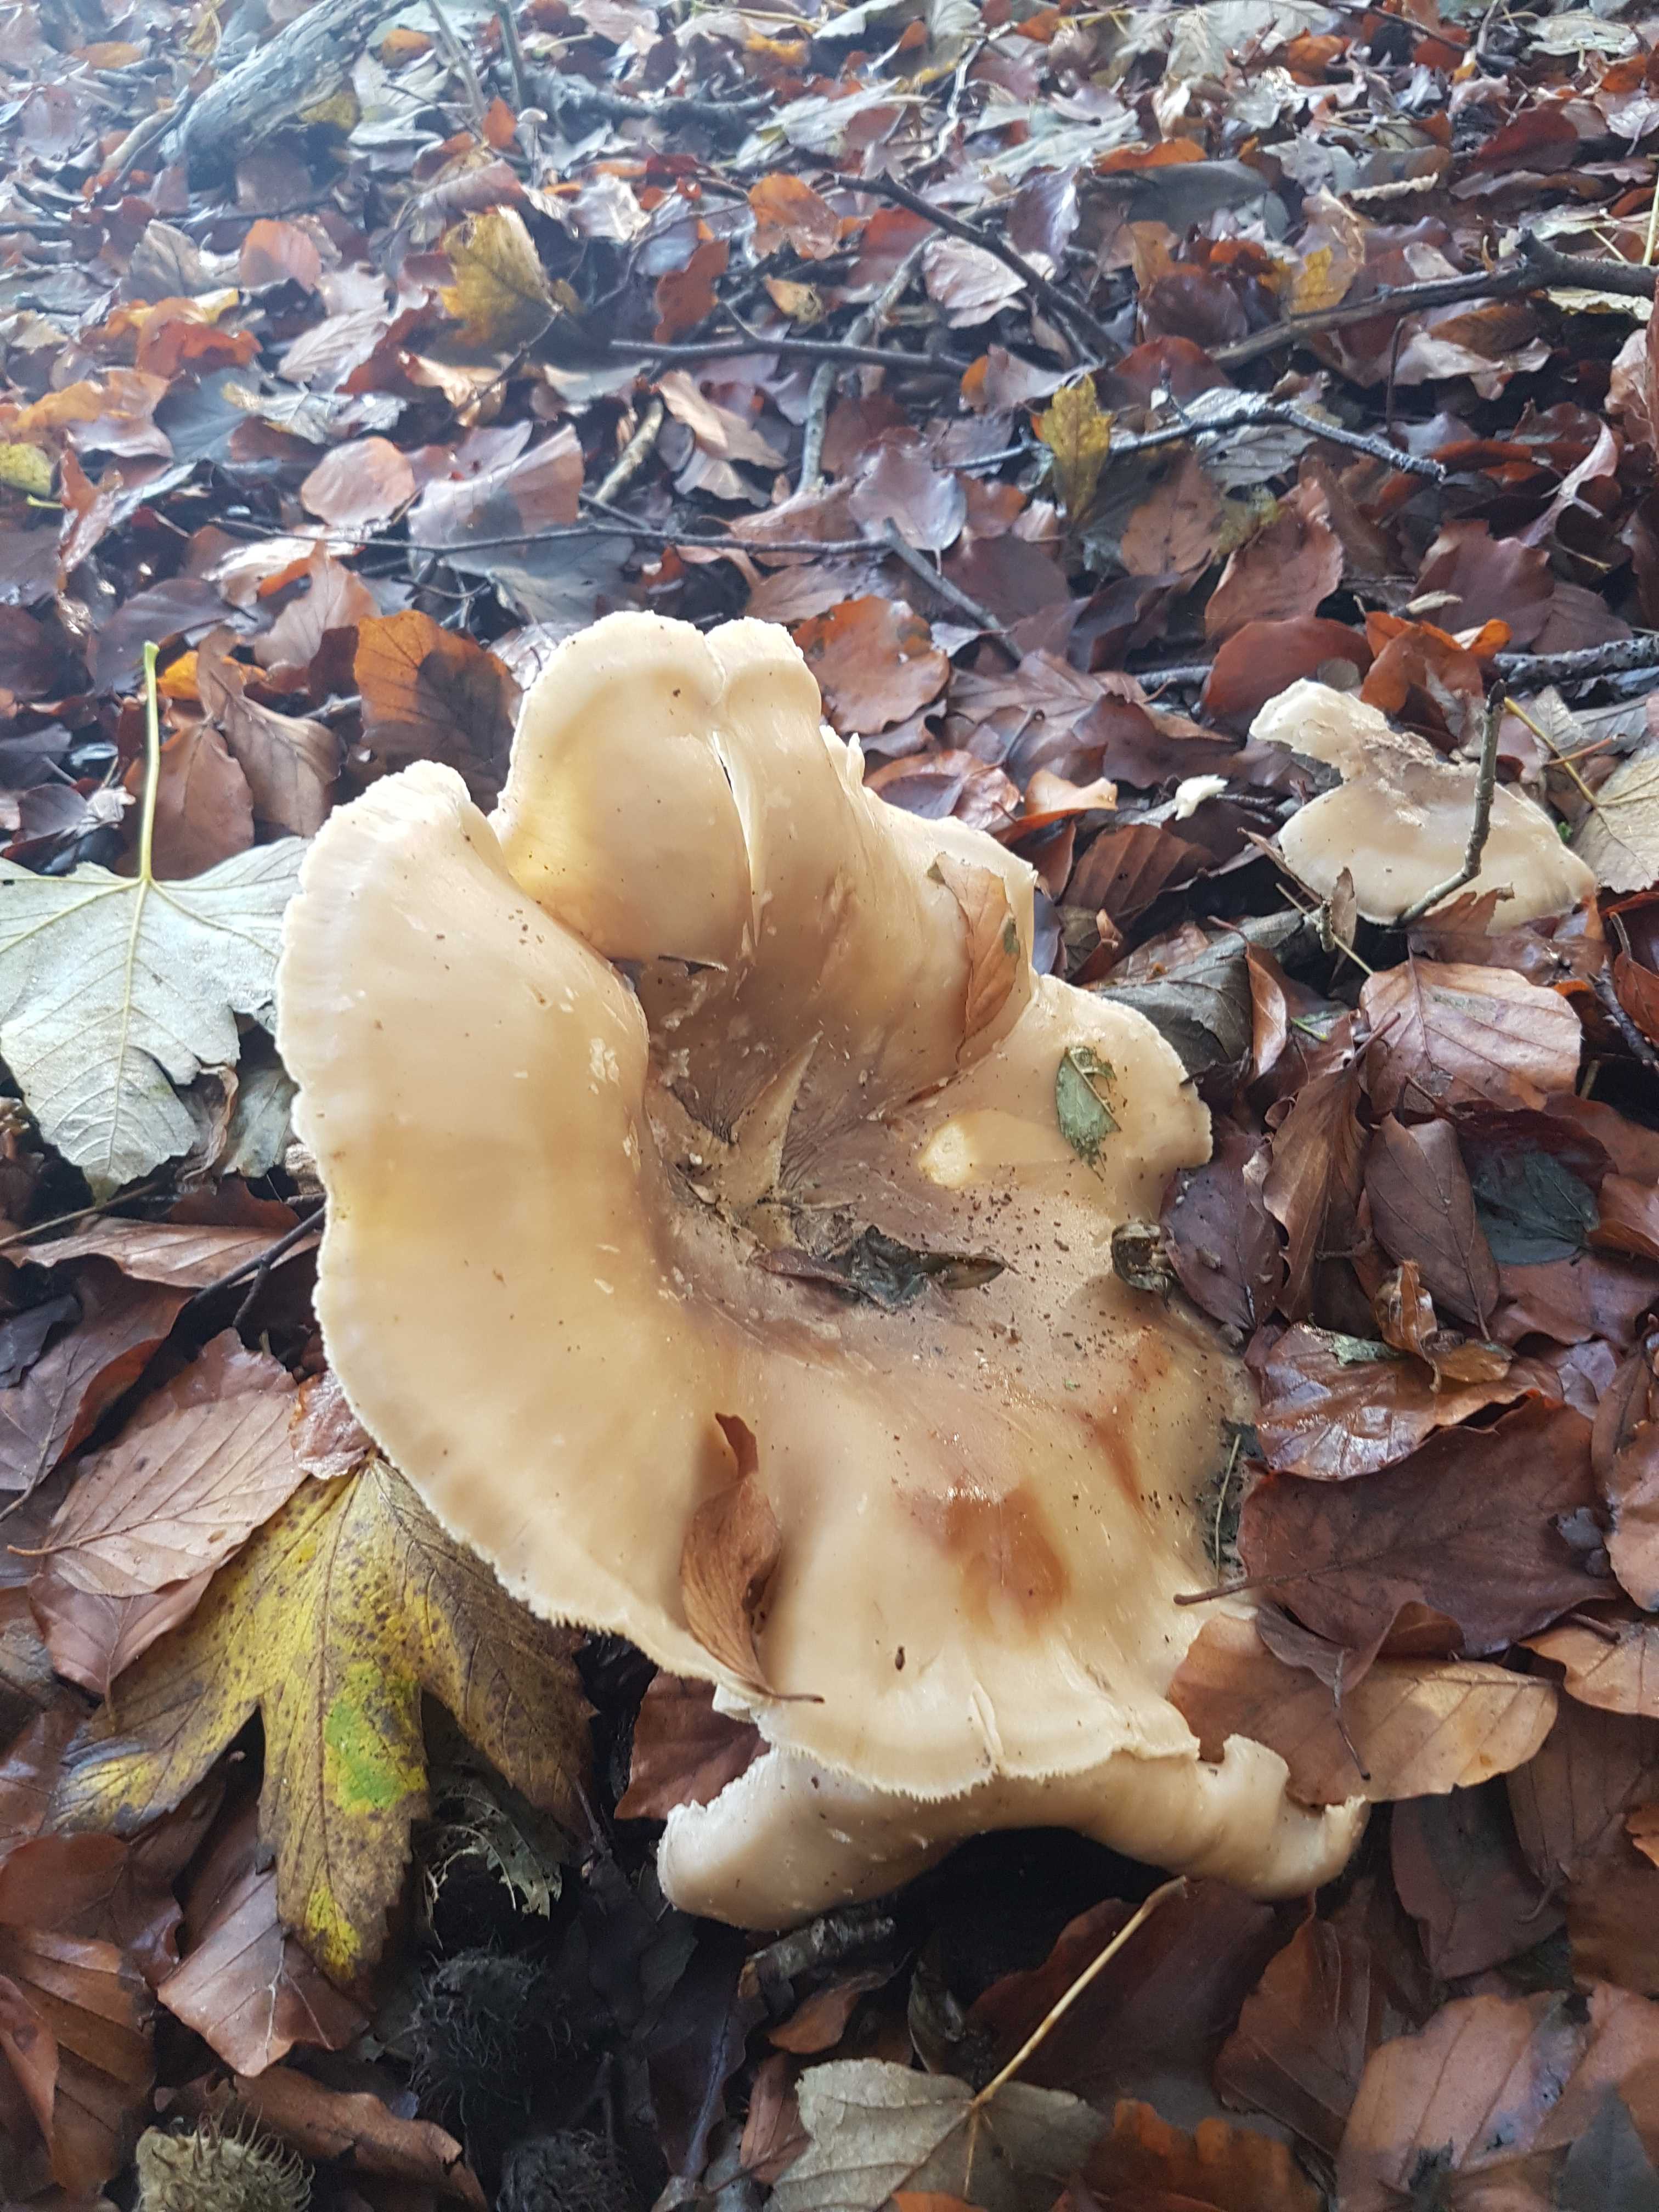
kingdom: Fungi
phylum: Basidiomycota
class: Agaricomycetes
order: Agaricales
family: Tricholomataceae
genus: Clitocybe
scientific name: Clitocybe nebularis
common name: tåge-tragthat
